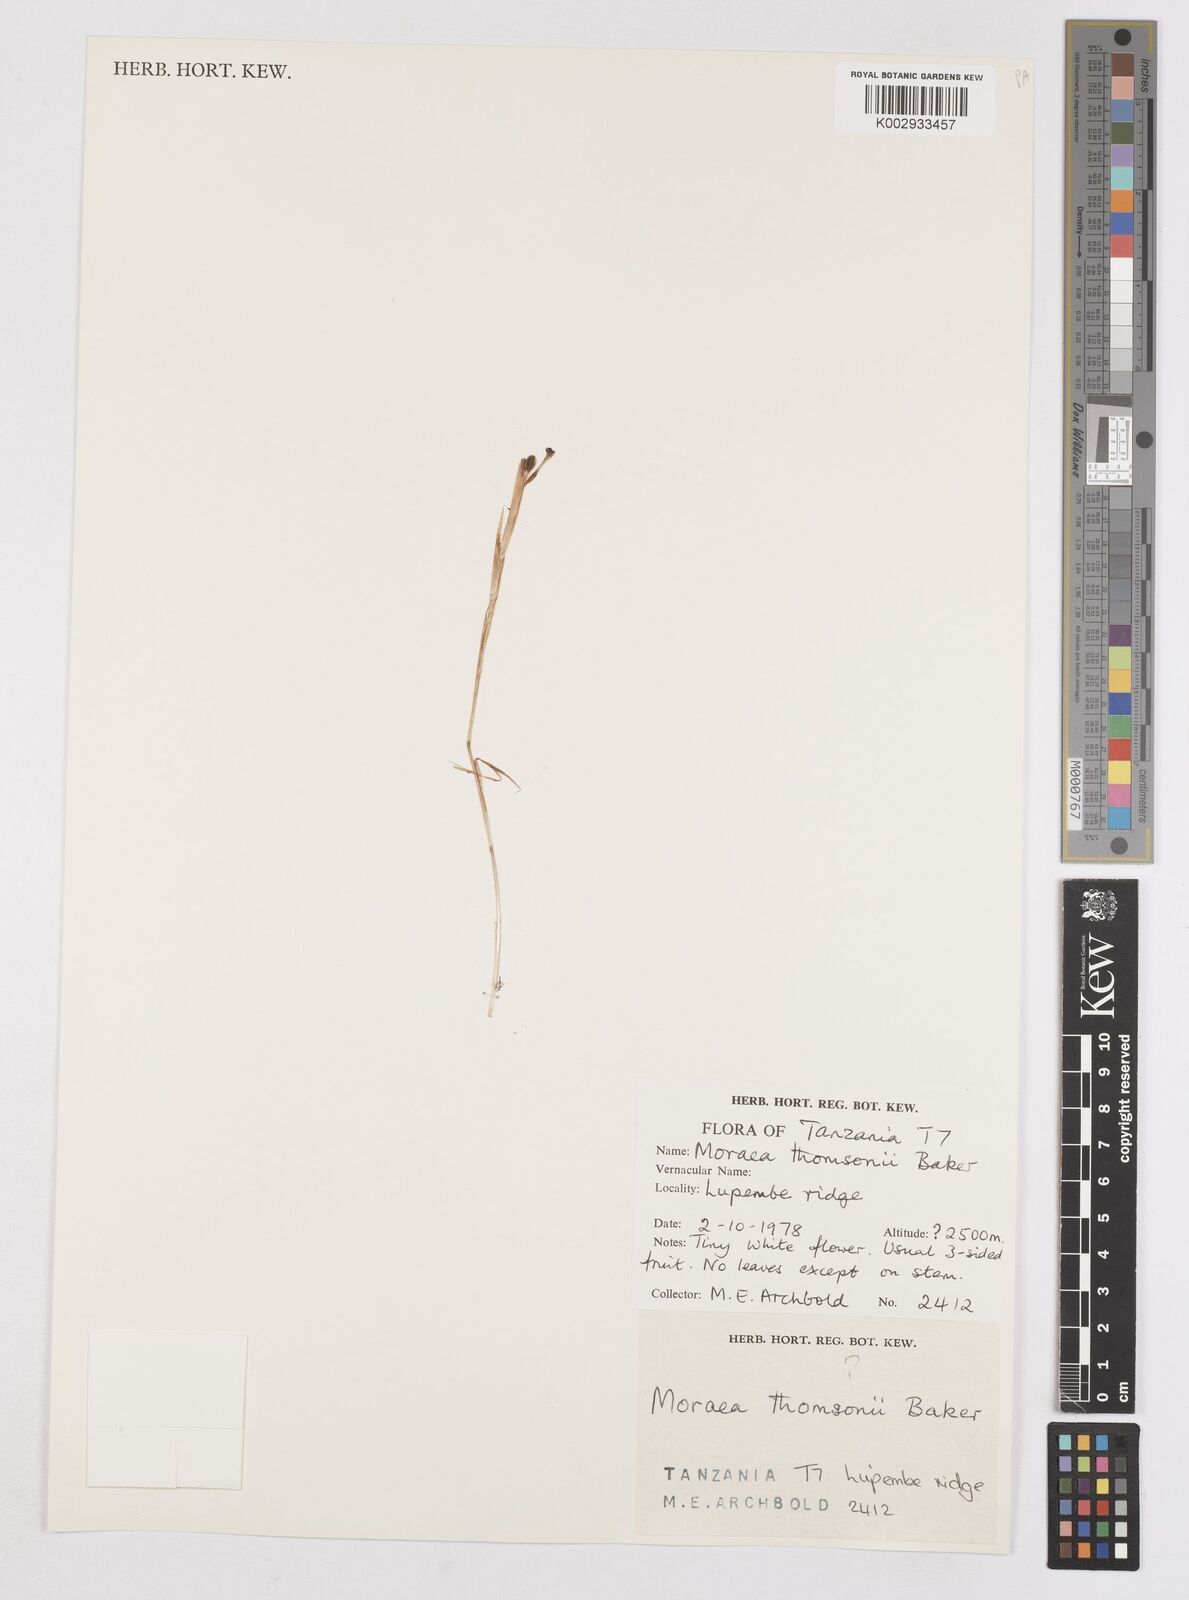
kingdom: Plantae
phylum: Tracheophyta
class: Liliopsida
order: Asparagales
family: Iridaceae
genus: Moraea
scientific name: Moraea stricta
